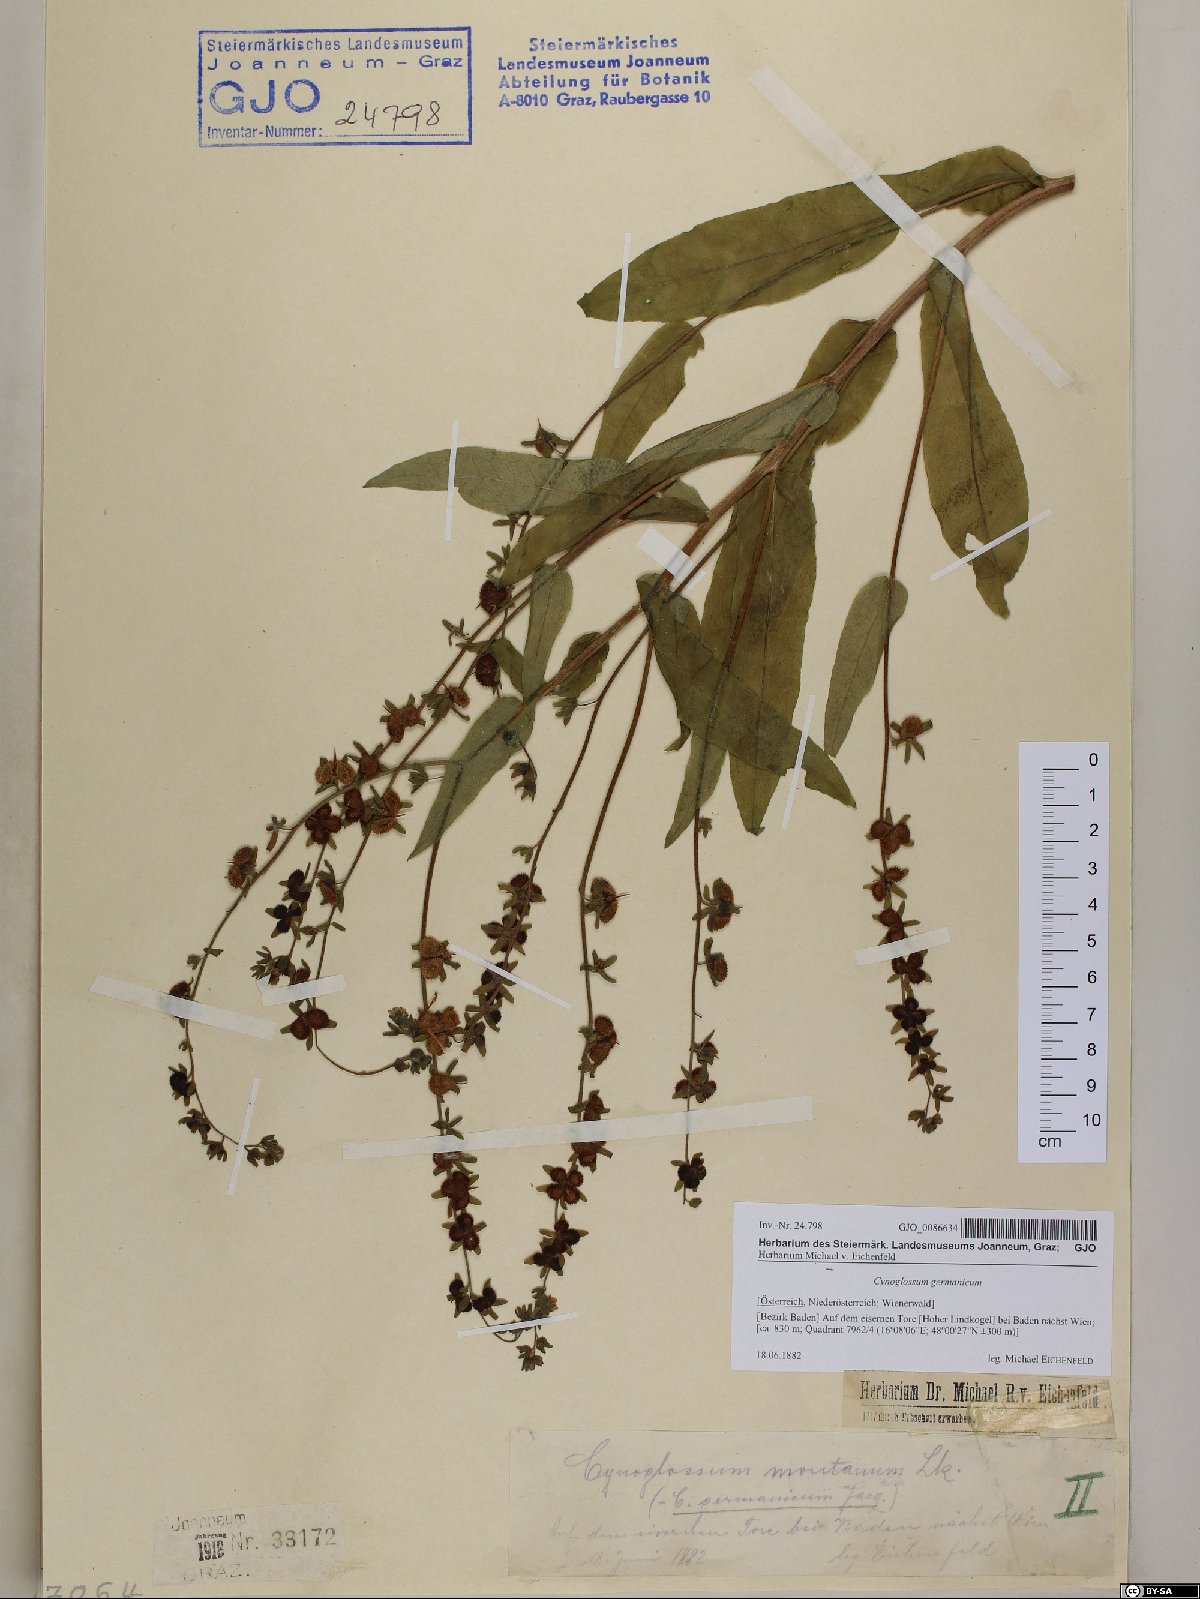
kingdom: Plantae
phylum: Tracheophyta
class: Magnoliopsida
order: Boraginales
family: Boraginaceae
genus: Cynoglossum
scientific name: Cynoglossum germanicum
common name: Green hound's-tongue
